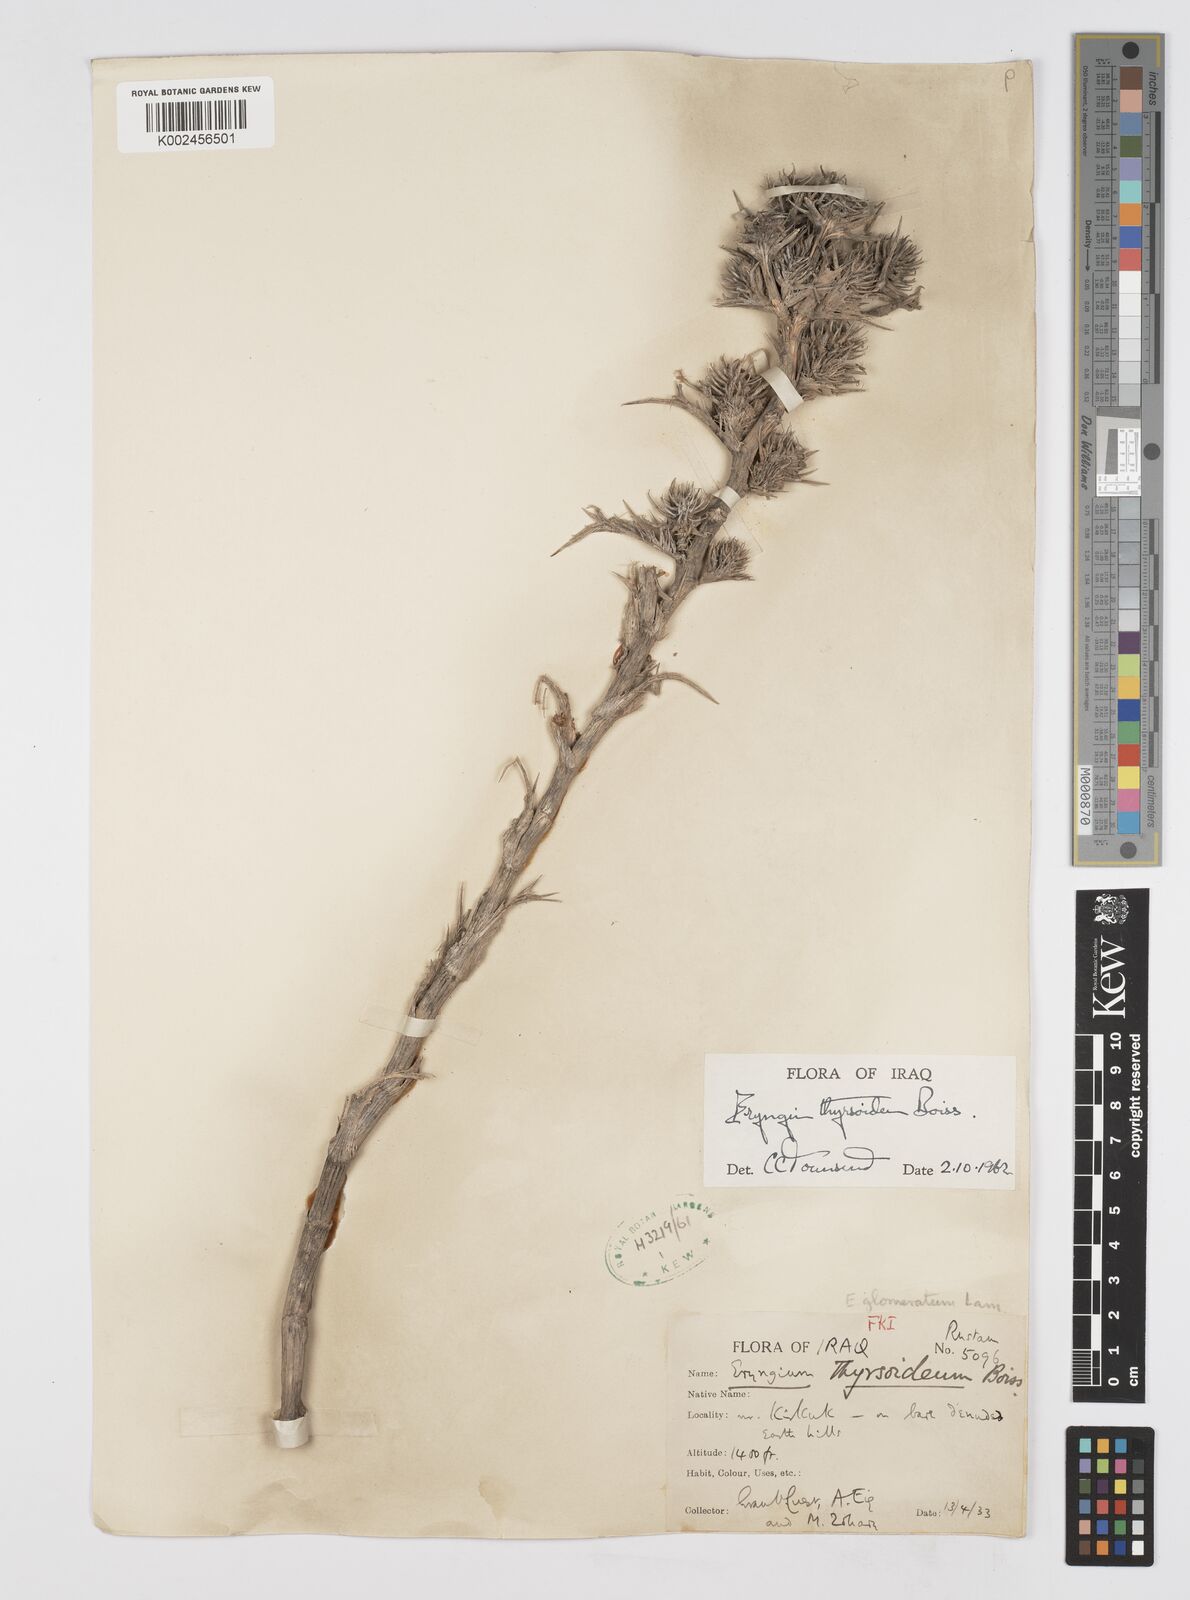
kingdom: Plantae
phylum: Tracheophyta
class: Magnoliopsida
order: Apiales
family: Apiaceae
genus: Eryngium
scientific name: Eryngium thyrsoideum
